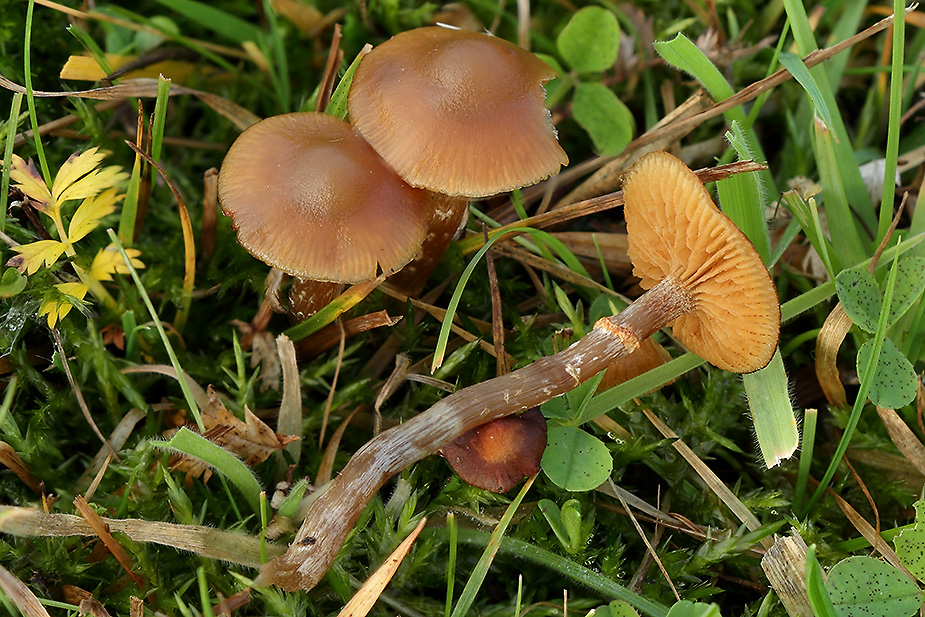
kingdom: Fungi
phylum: Basidiomycota
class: Agaricomycetes
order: Agaricales
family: Hymenogastraceae
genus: Galerina
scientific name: Galerina marginata
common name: randbæltet hjelmhat
